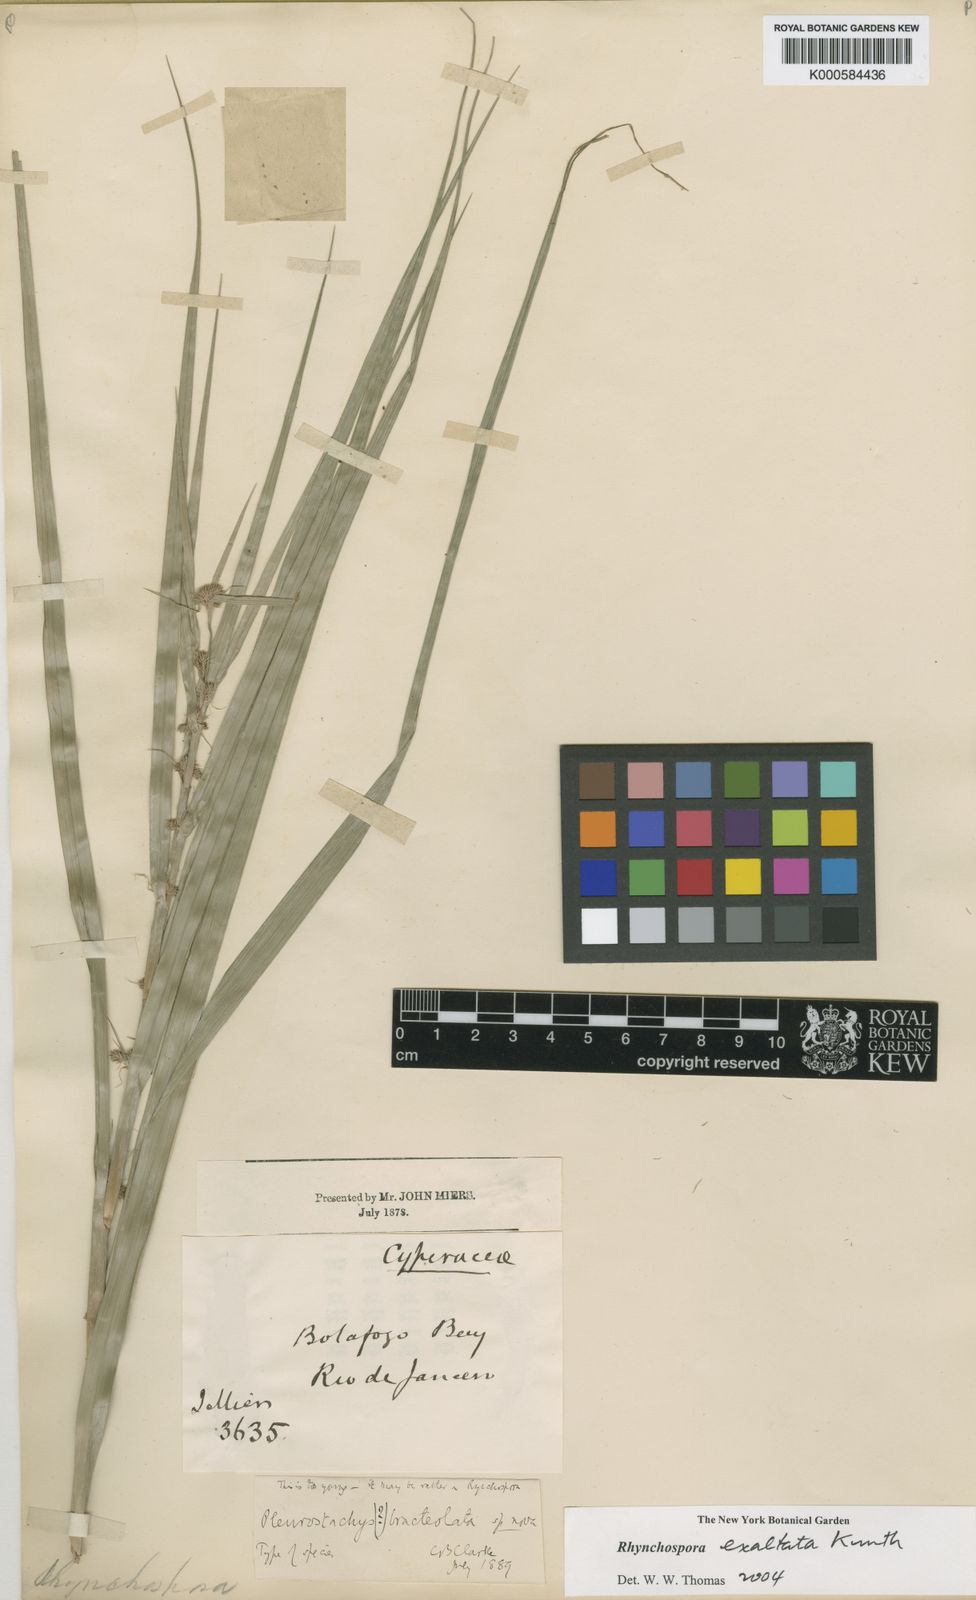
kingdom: Plantae
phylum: Tracheophyta
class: Liliopsida
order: Poales
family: Cyperaceae
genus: Rhynchospora
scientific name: Rhynchospora exaltata
